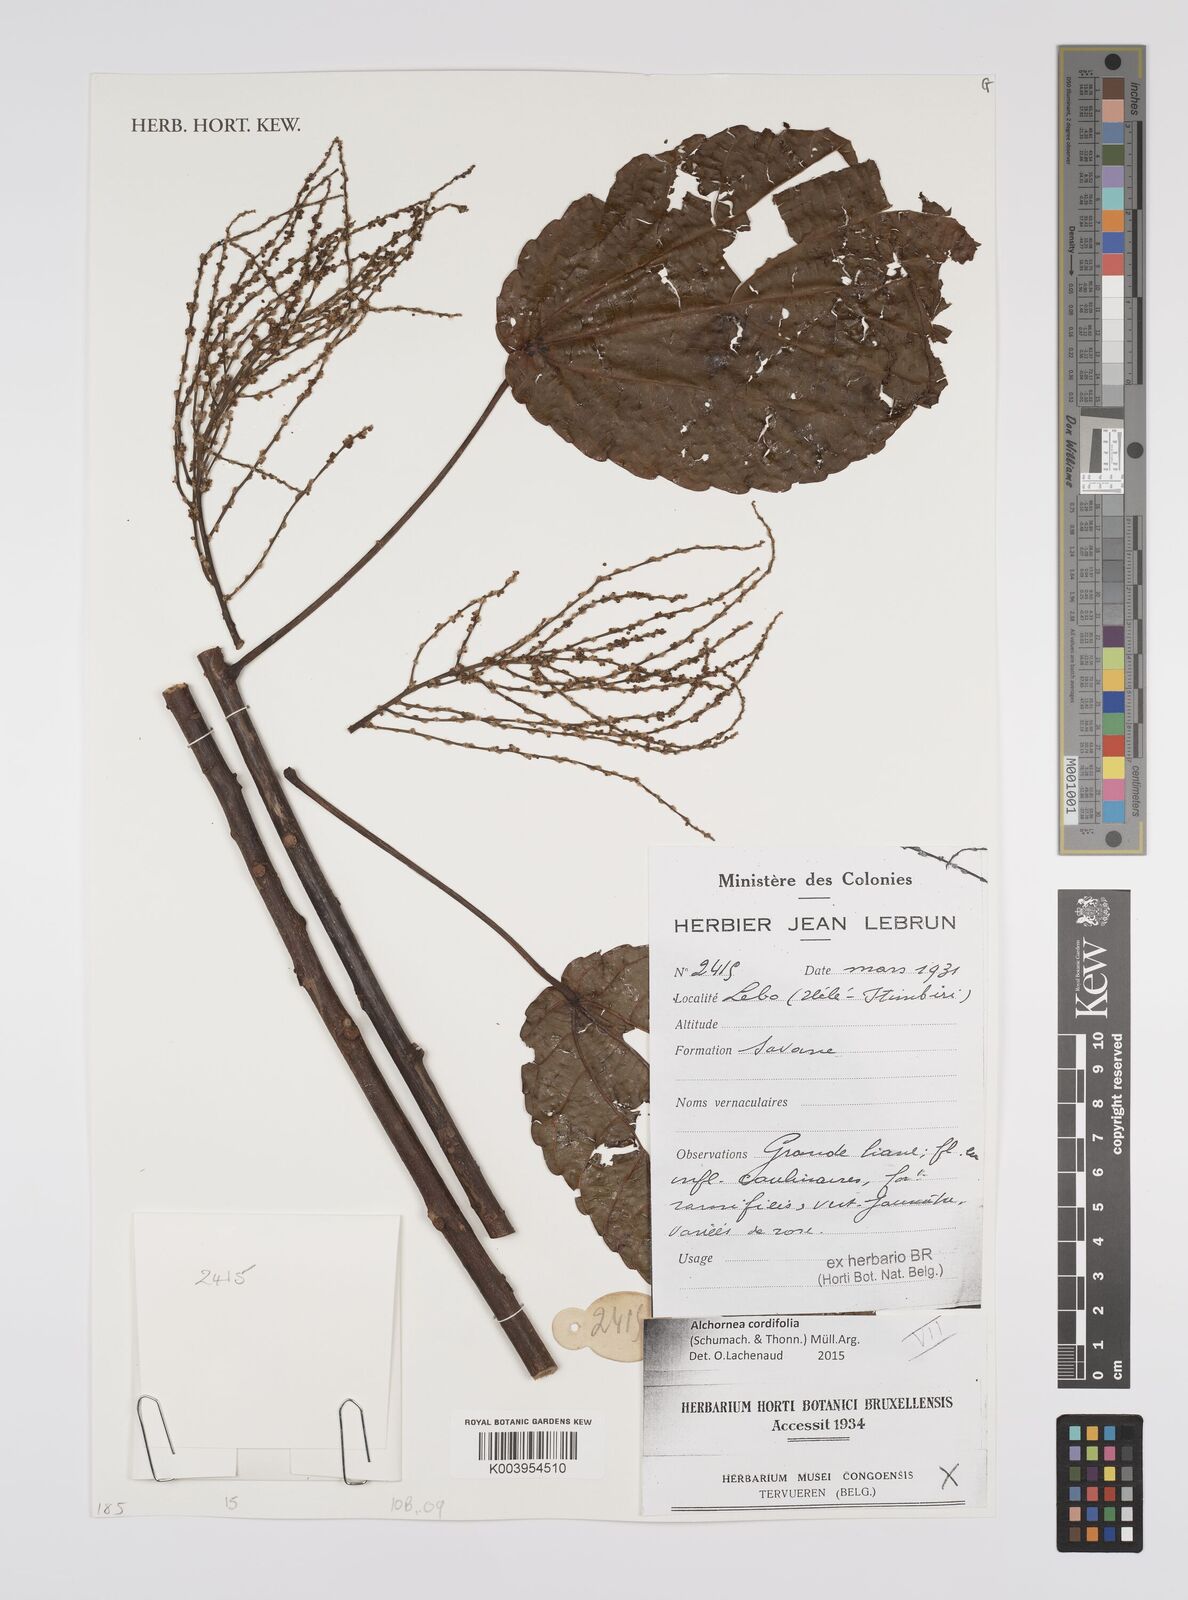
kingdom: Plantae
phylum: Tracheophyta
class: Magnoliopsida
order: Malpighiales
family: Euphorbiaceae
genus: Alchornea
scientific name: Alchornea cordifolia
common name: Christmasbush
